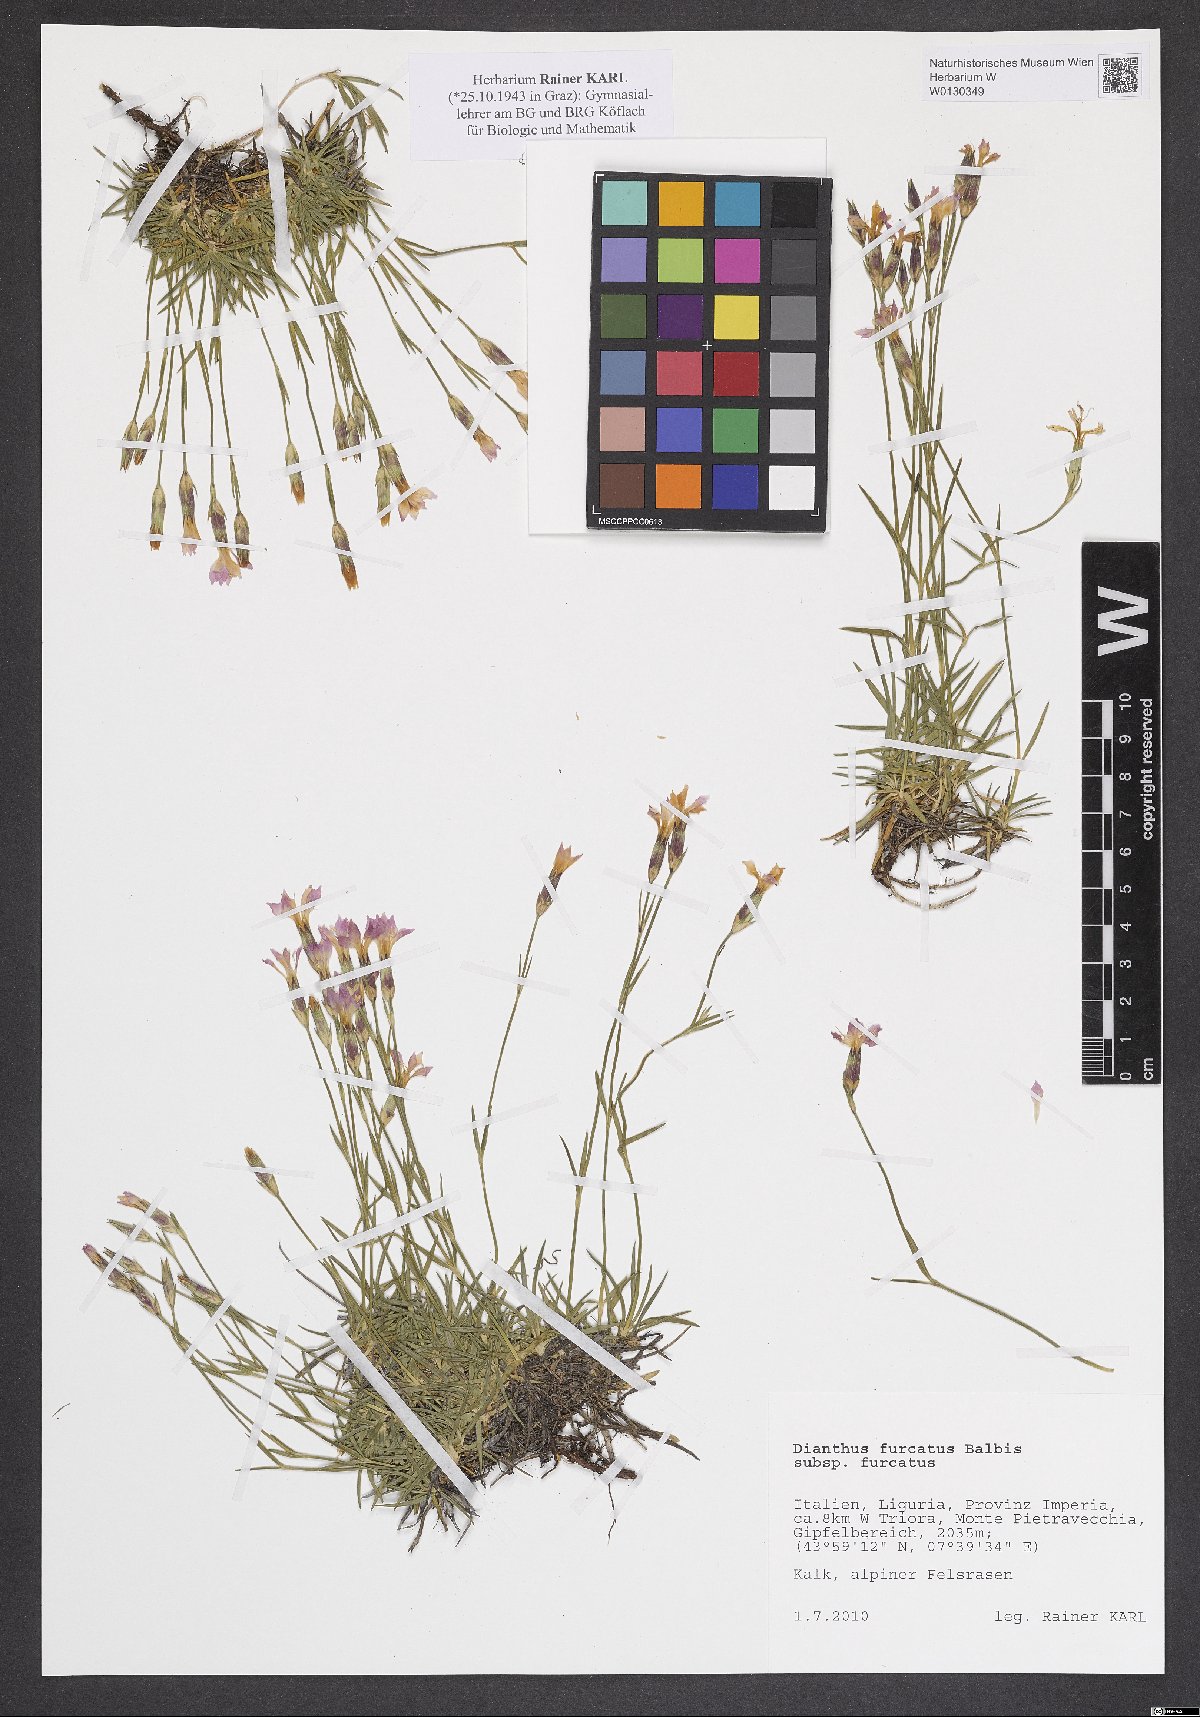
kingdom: Plantae
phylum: Tracheophyta
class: Magnoliopsida
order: Caryophyllales
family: Caryophyllaceae
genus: Dianthus
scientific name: Dianthus furcatus
